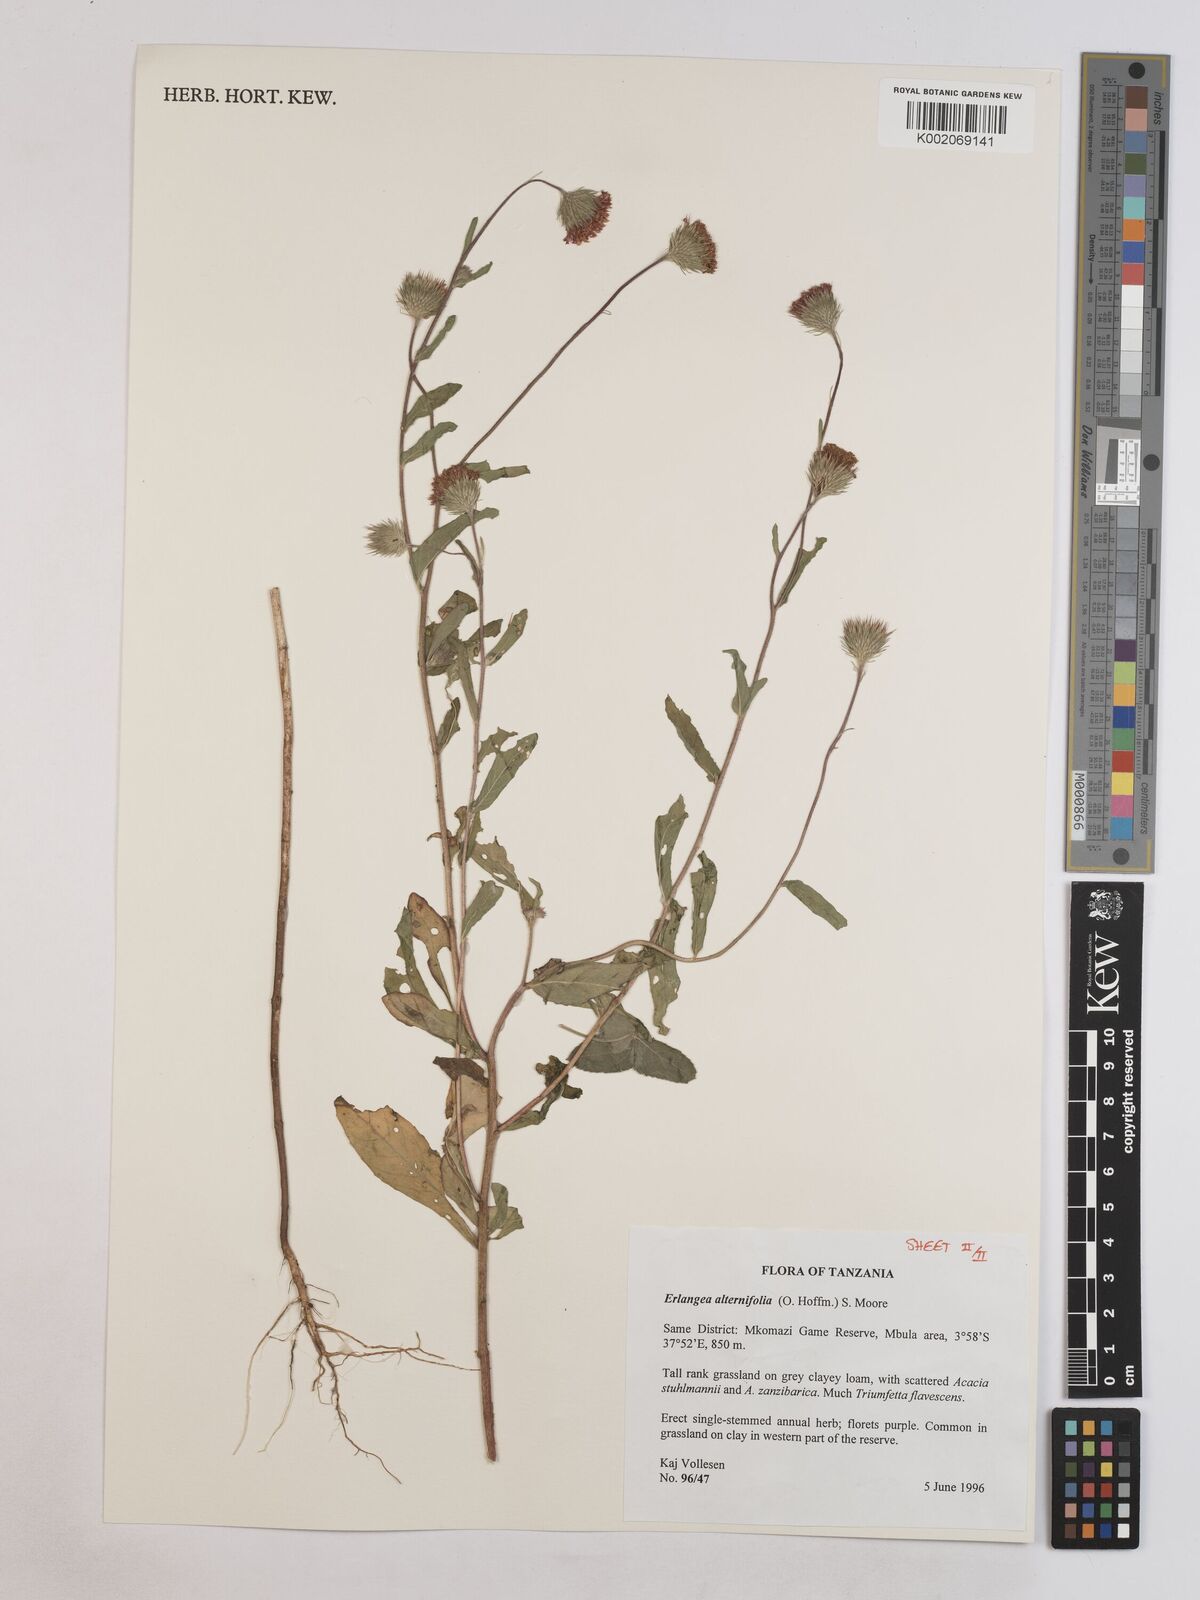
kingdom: Plantae
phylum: Tracheophyta
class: Magnoliopsida
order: Asterales
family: Asteraceae
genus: Erlangea
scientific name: Erlangea alternifolia
